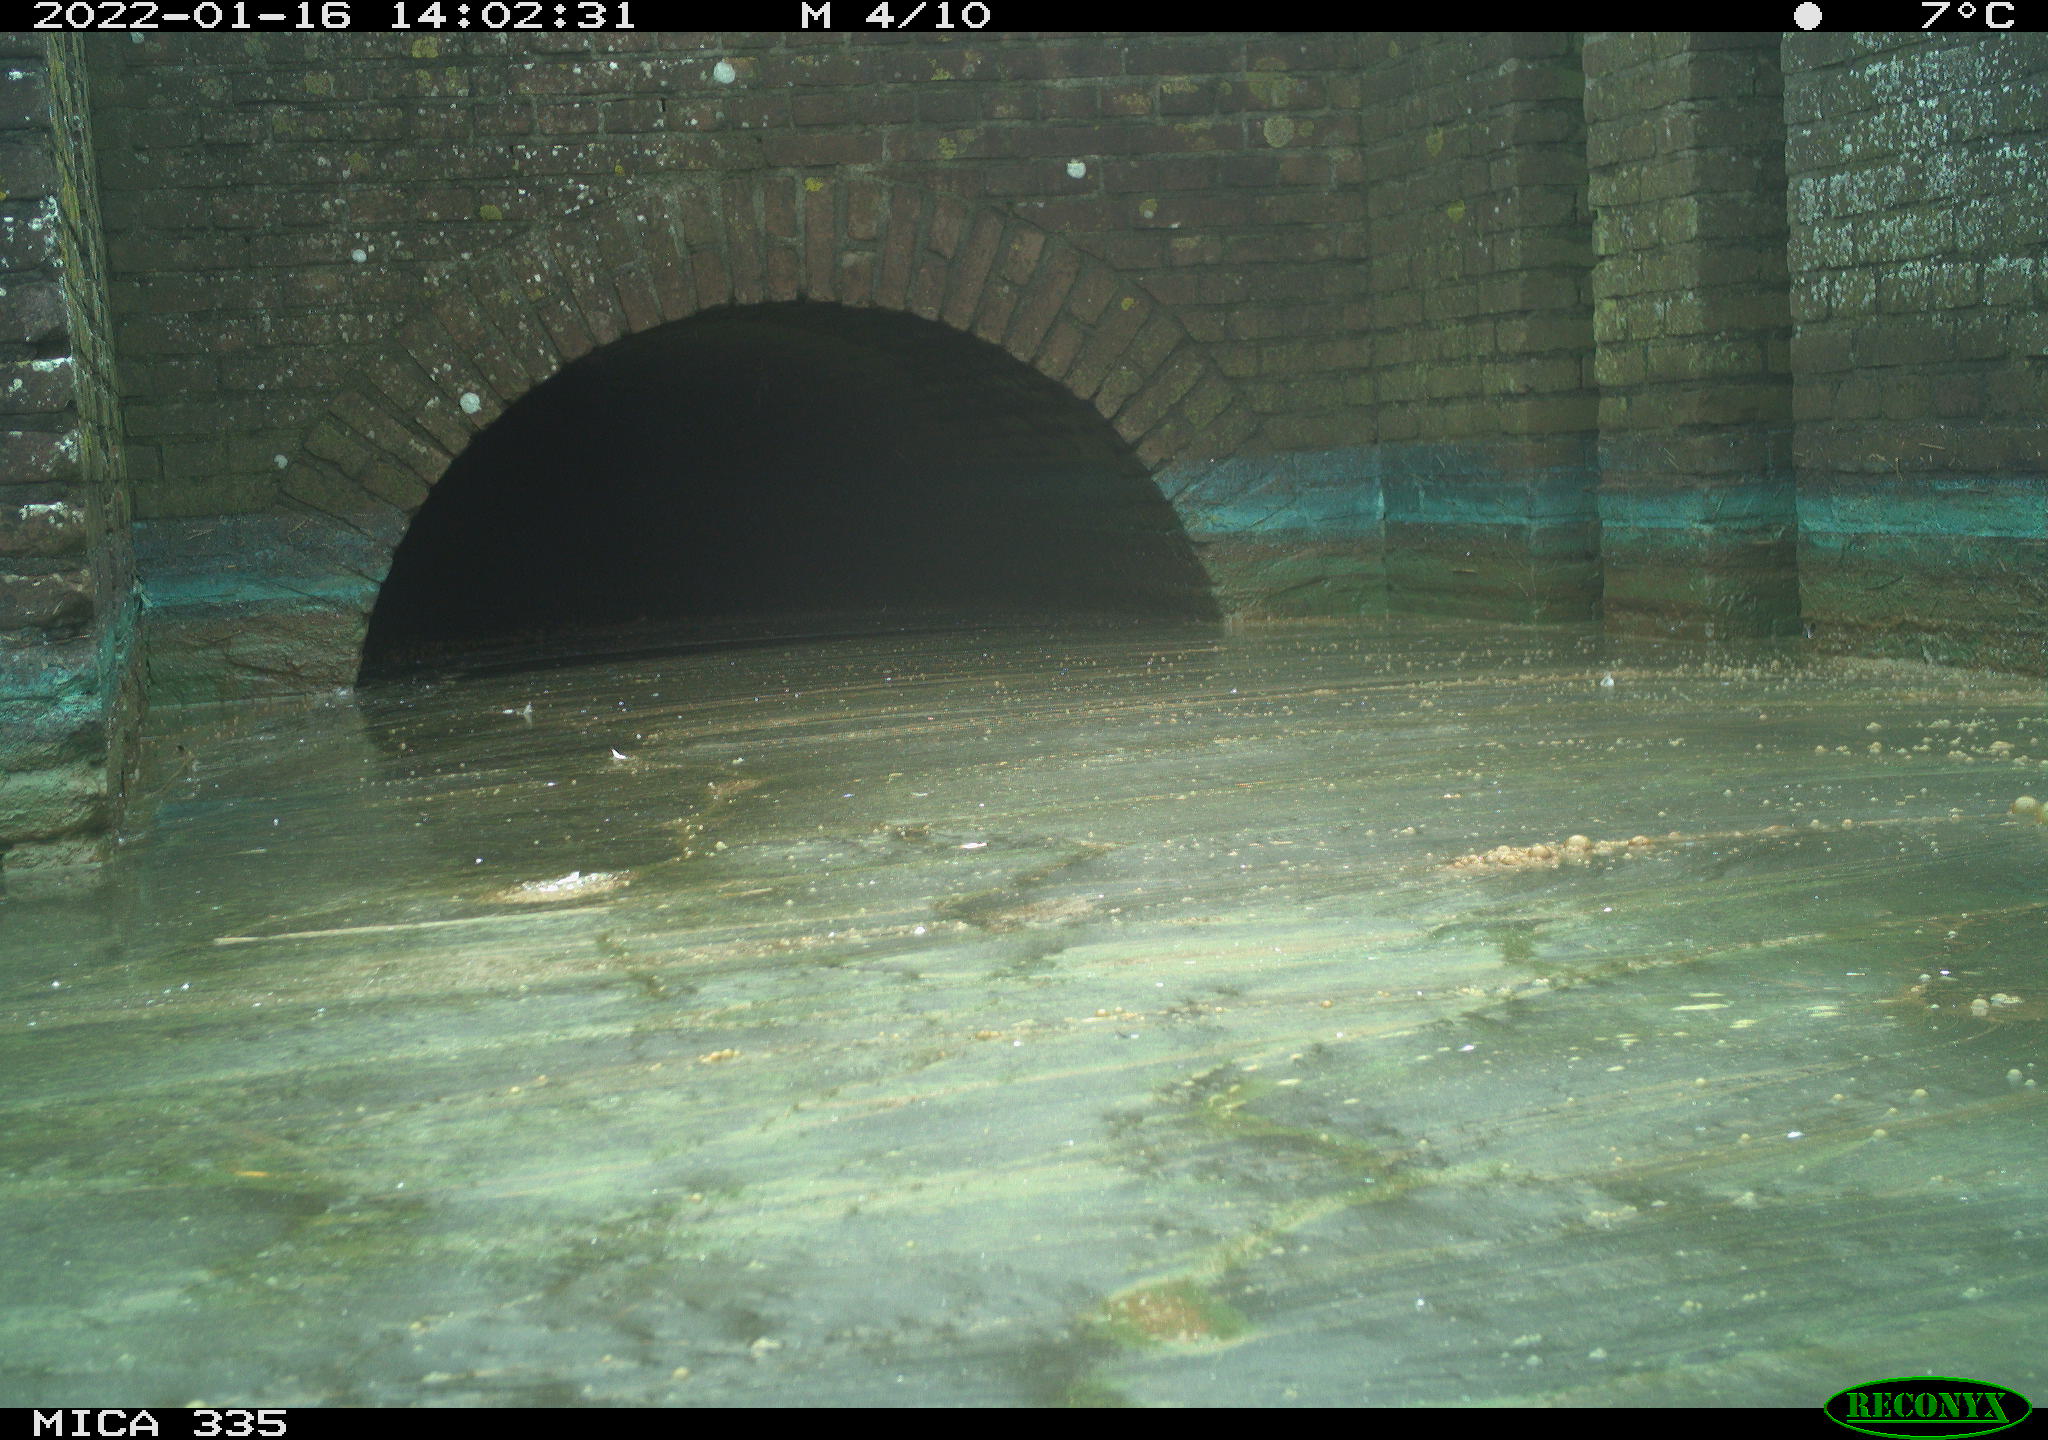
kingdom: Animalia
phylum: Chordata
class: Aves
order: Gruiformes
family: Rallidae
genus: Gallinula
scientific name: Gallinula chloropus
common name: Common moorhen
